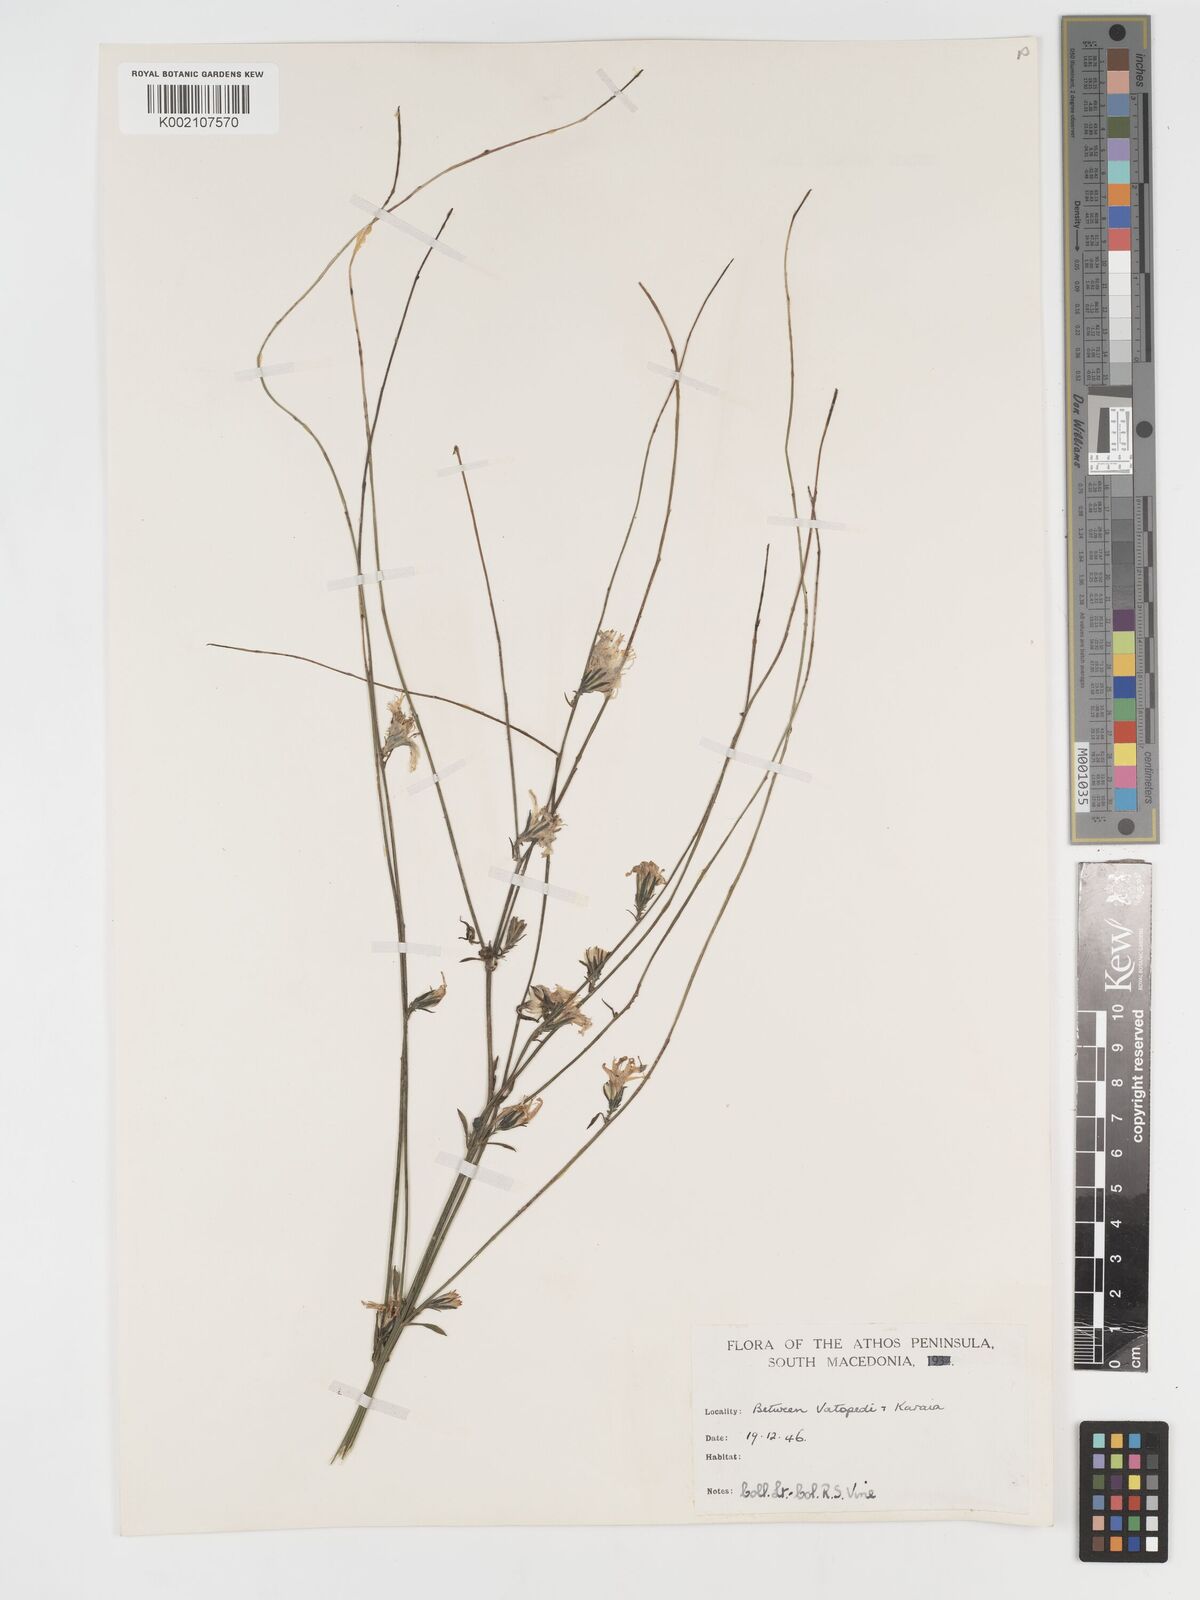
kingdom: Plantae
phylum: Tracheophyta
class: Magnoliopsida
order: Asterales
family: Asteraceae
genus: Crepis
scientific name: Crepis pulchra
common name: Hawk's-beard
